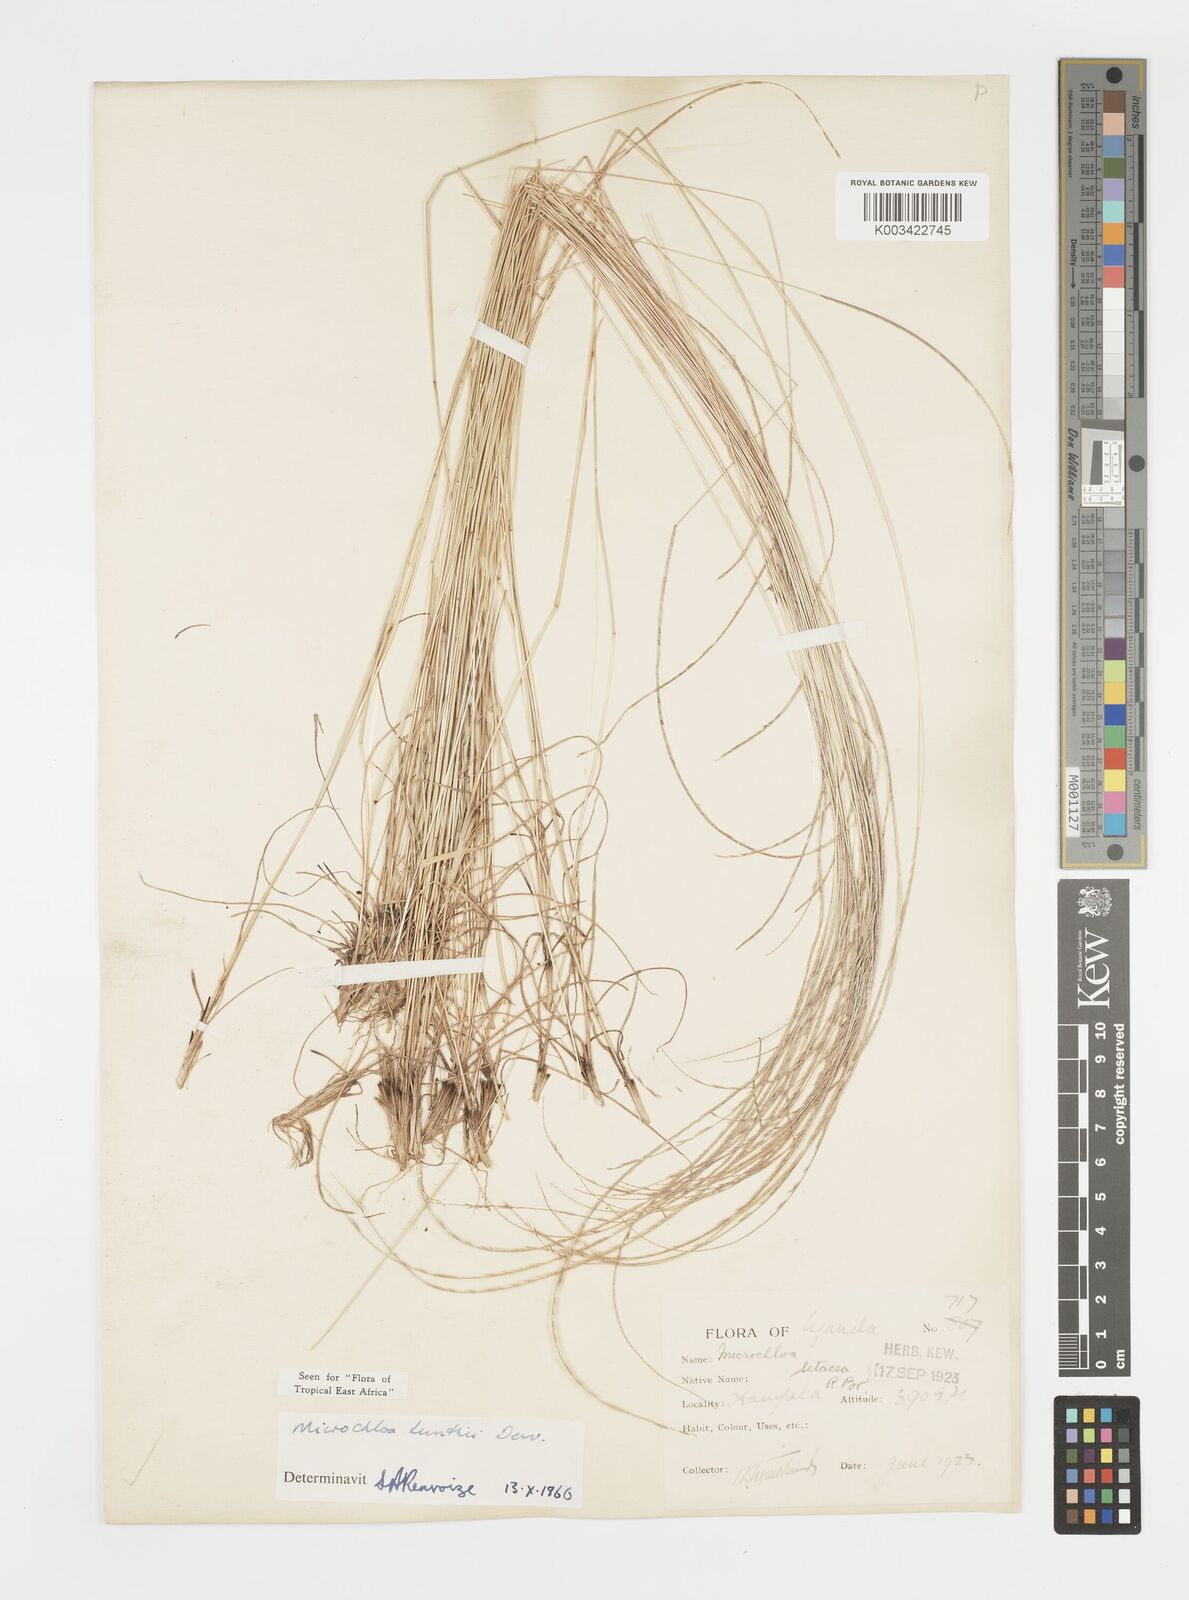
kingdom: Plantae
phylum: Tracheophyta
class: Liliopsida
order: Poales
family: Poaceae
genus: Microchloa
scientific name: Microchloa kunthii
